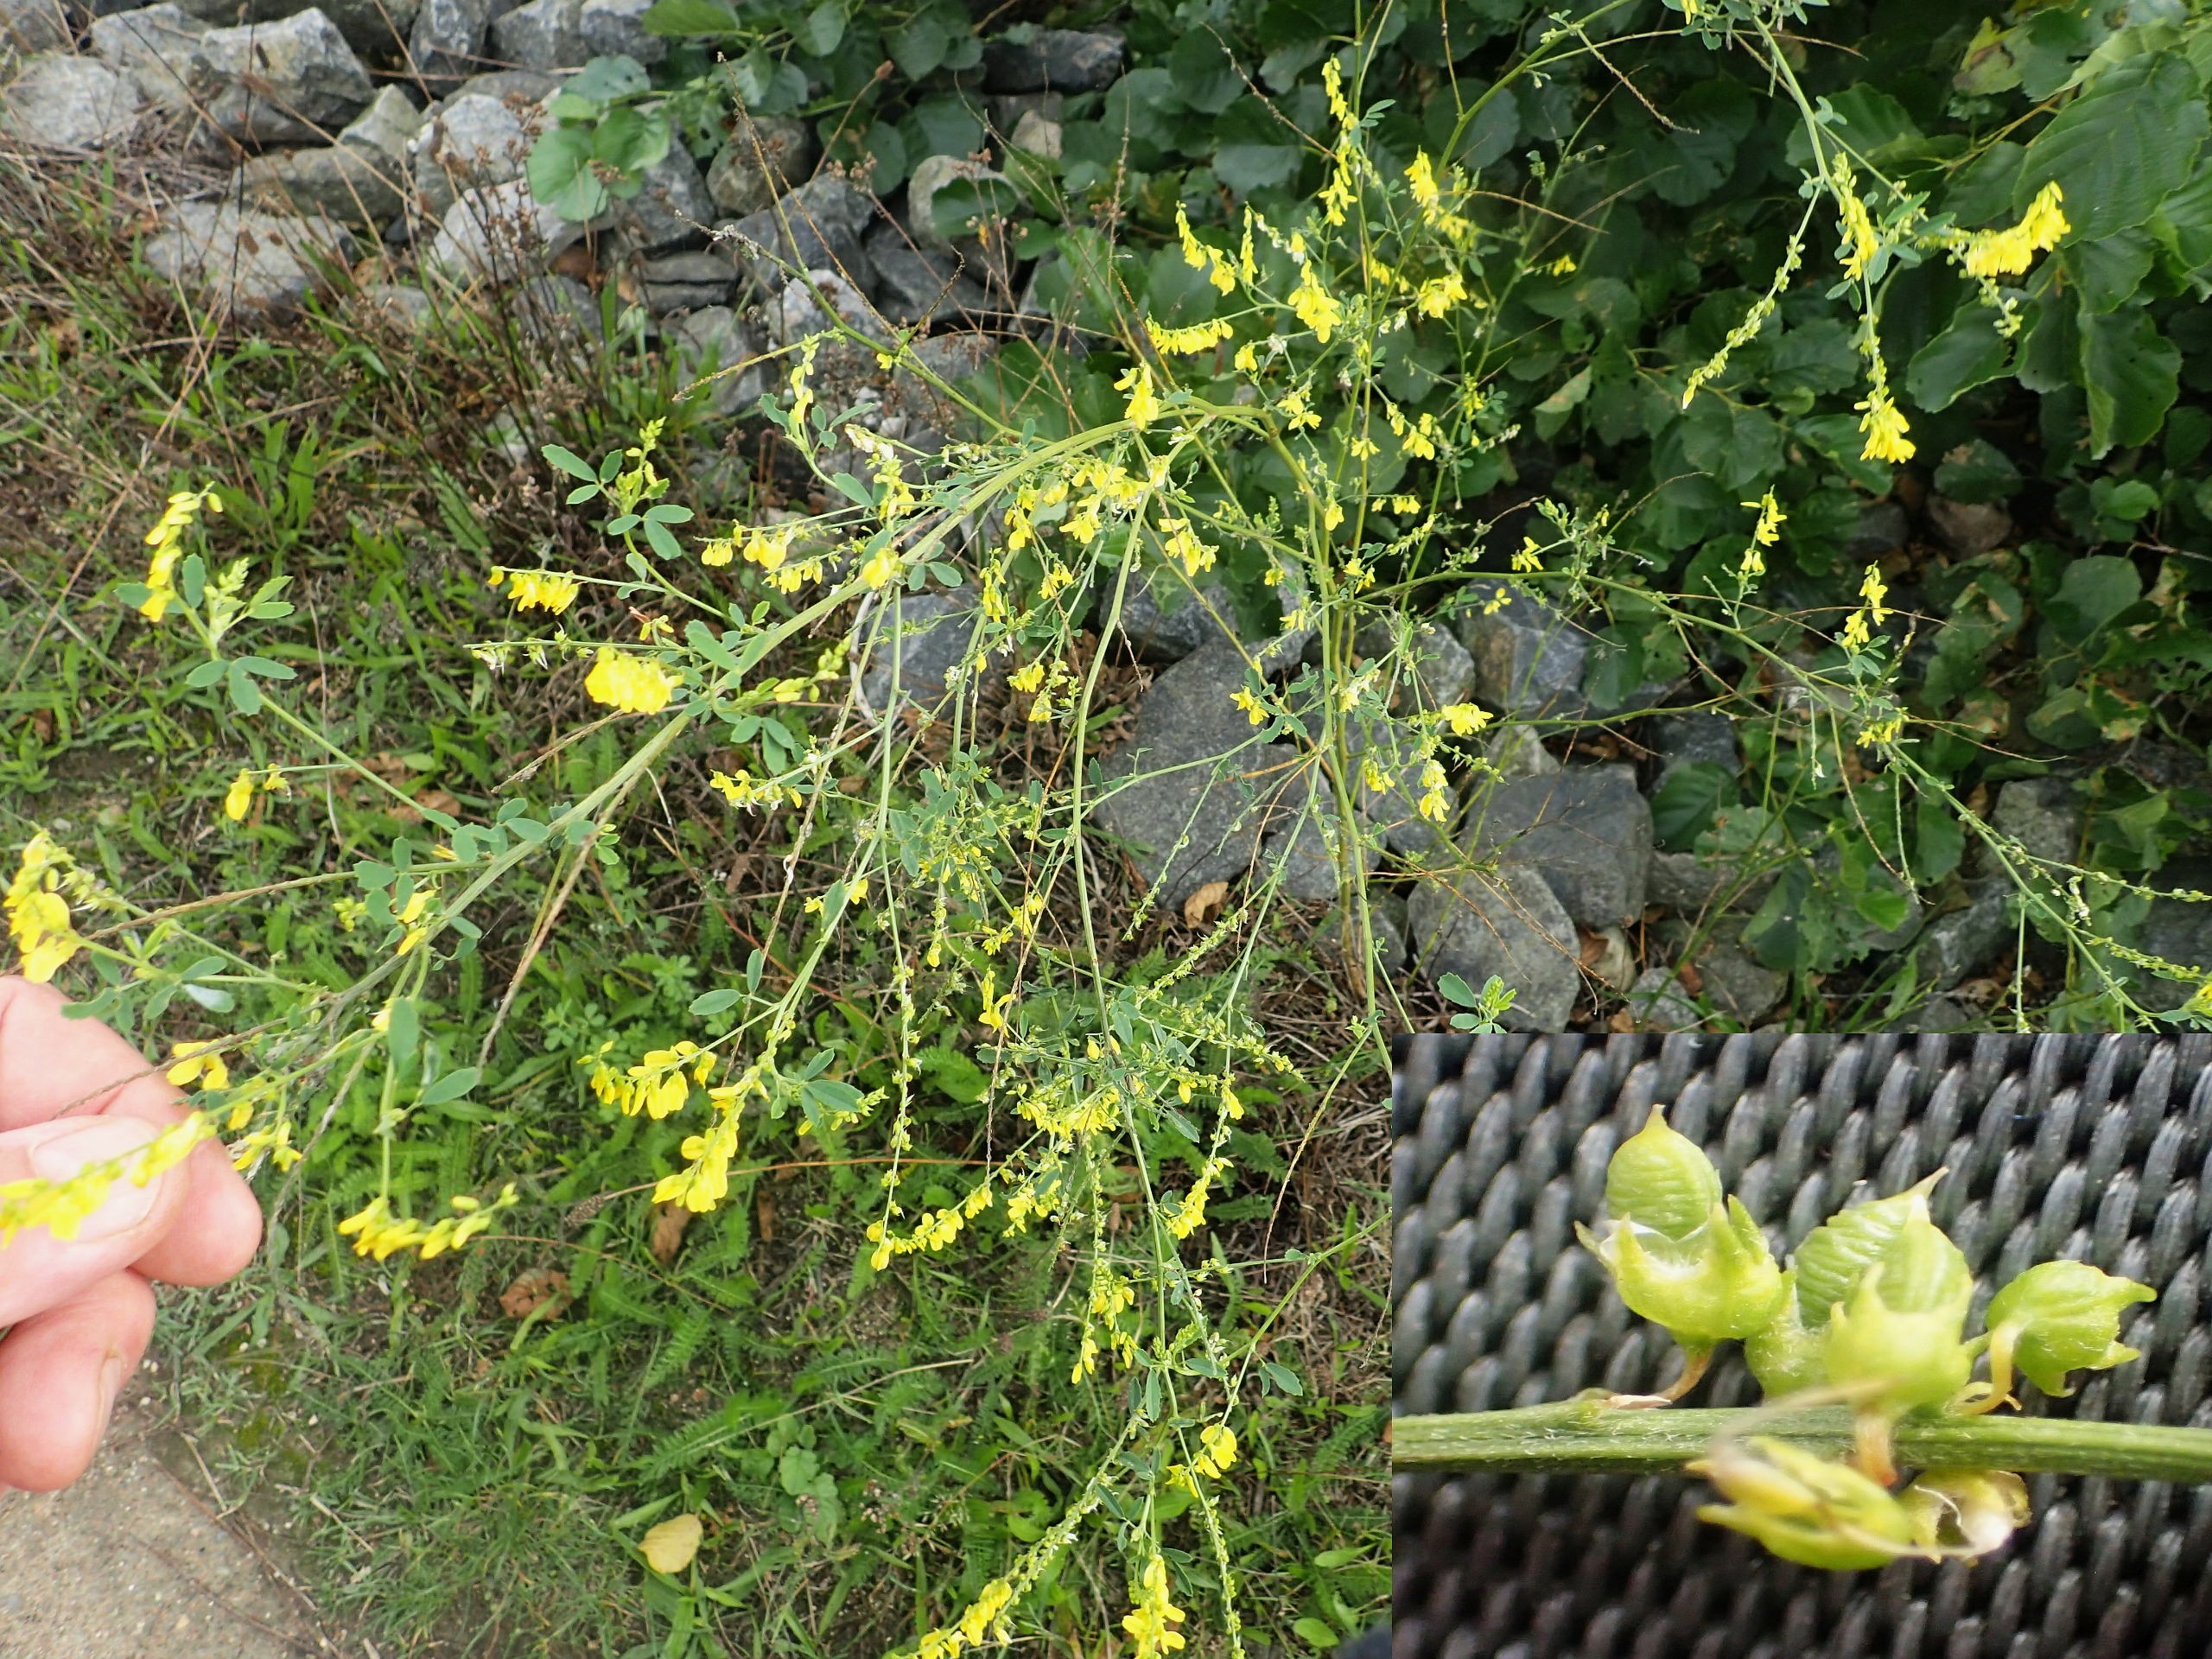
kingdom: Plantae
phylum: Tracheophyta
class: Magnoliopsida
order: Fabales
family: Fabaceae
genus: Melilotus
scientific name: Melilotus officinalis
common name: Mark-stenkløver
